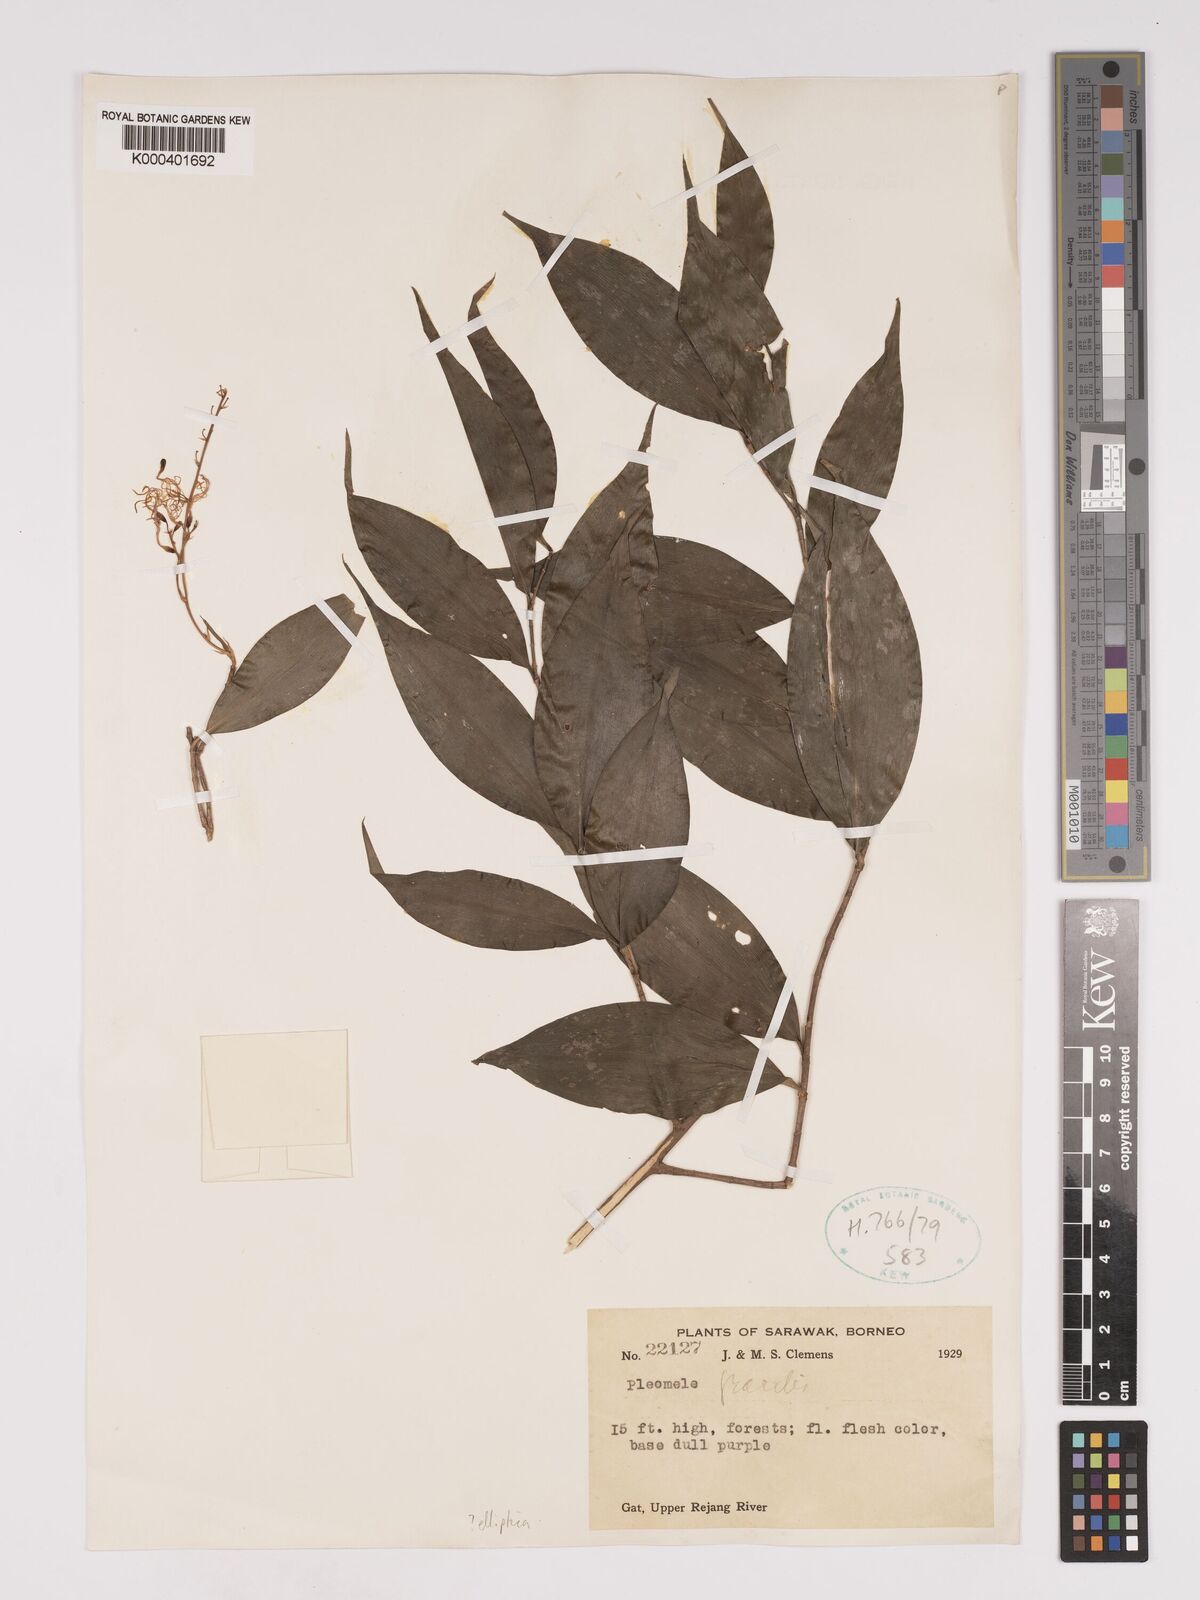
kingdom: Plantae
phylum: Tracheophyta
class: Liliopsida
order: Asparagales
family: Asparagaceae
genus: Dracaena
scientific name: Dracaena elliptica
